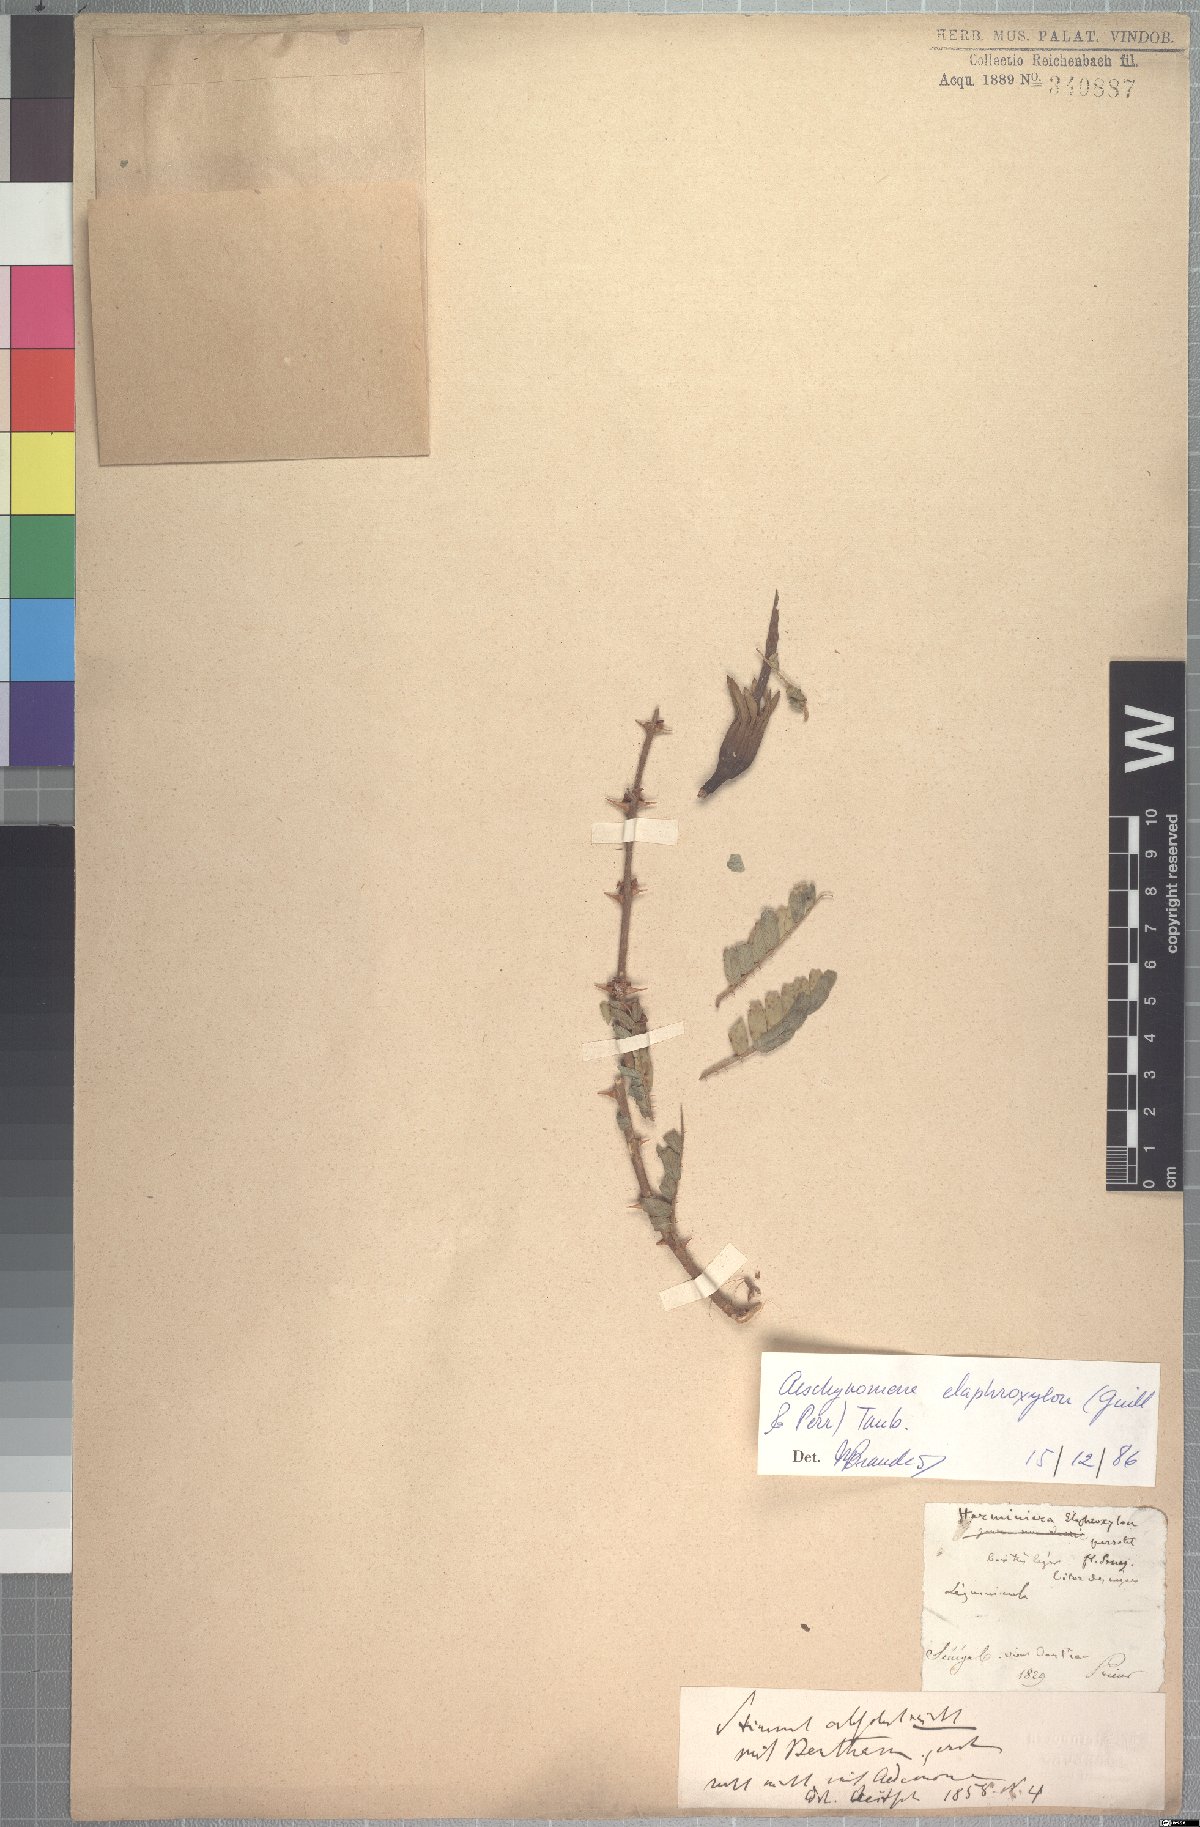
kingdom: Plantae
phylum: Tracheophyta
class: Magnoliopsida
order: Fabales
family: Fabaceae
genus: Aeschynomene
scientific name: Aeschynomene elaphroxylon
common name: Ambatch
